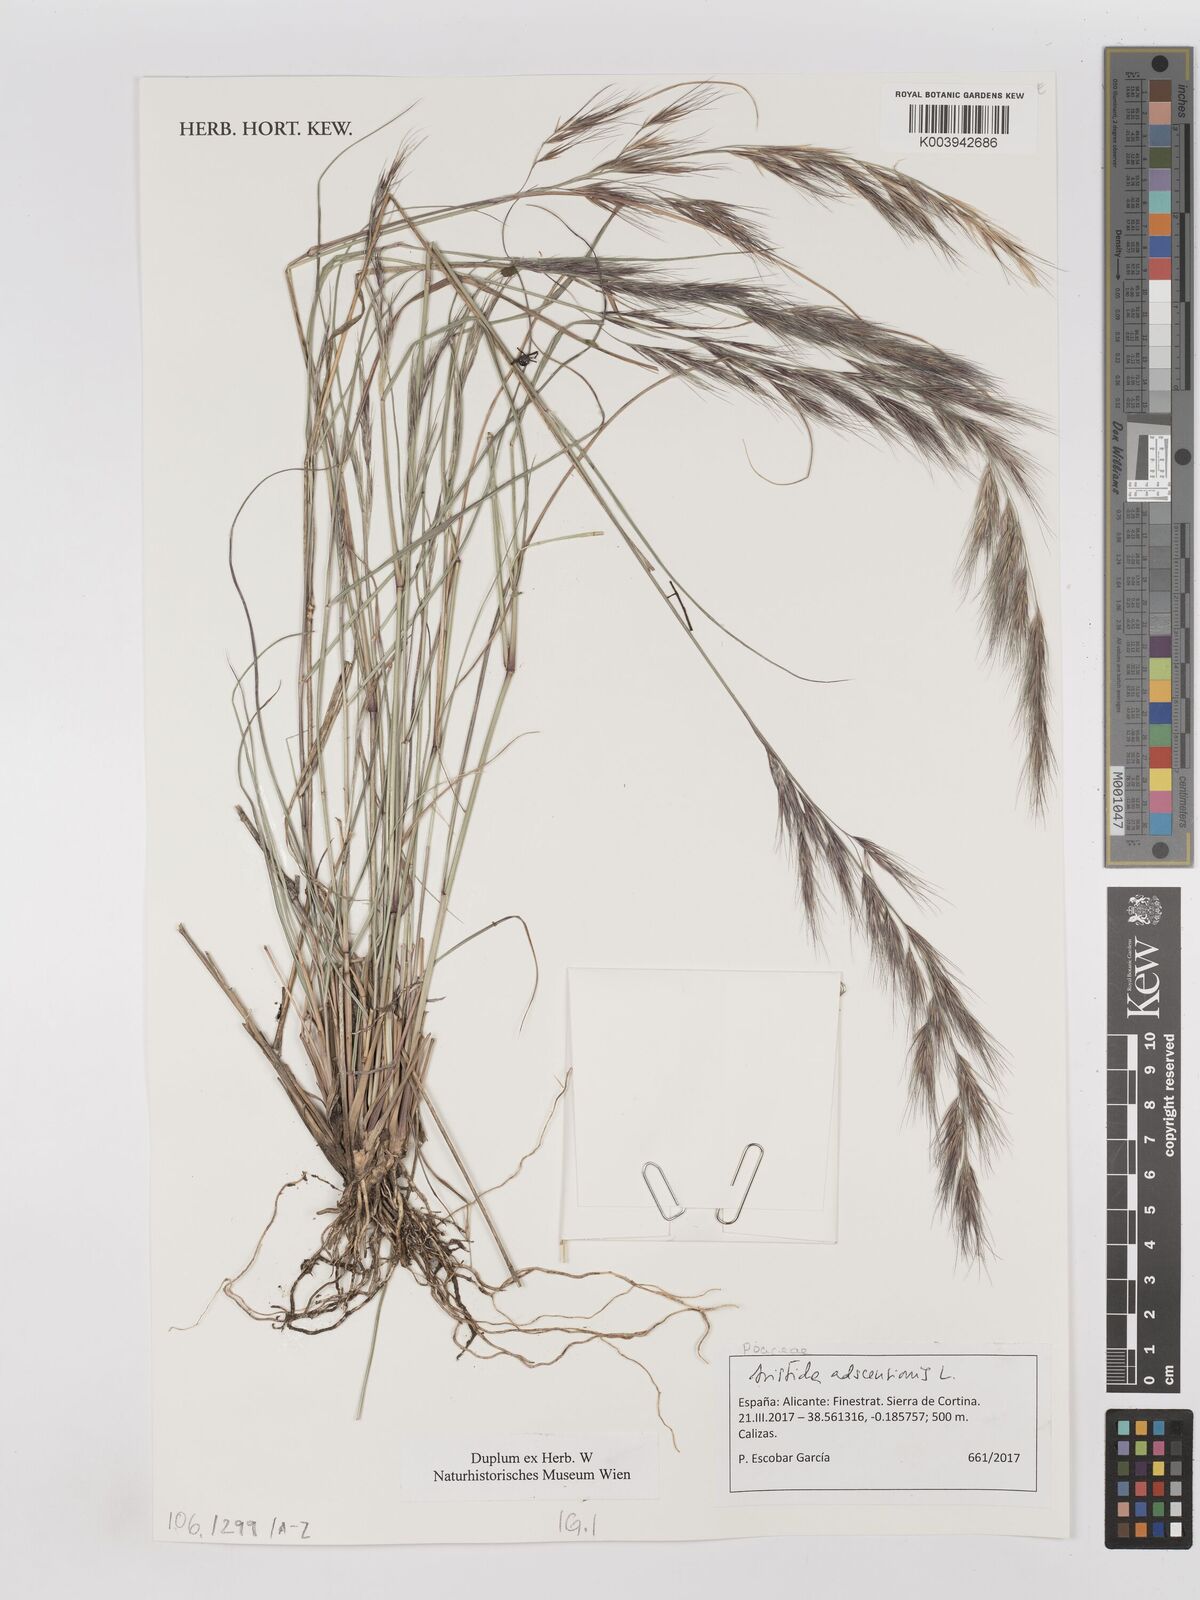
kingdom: Plantae
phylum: Tracheophyta
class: Liliopsida
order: Poales
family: Poaceae
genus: Aristida
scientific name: Aristida adscensionis
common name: Sixweeks threeawn
